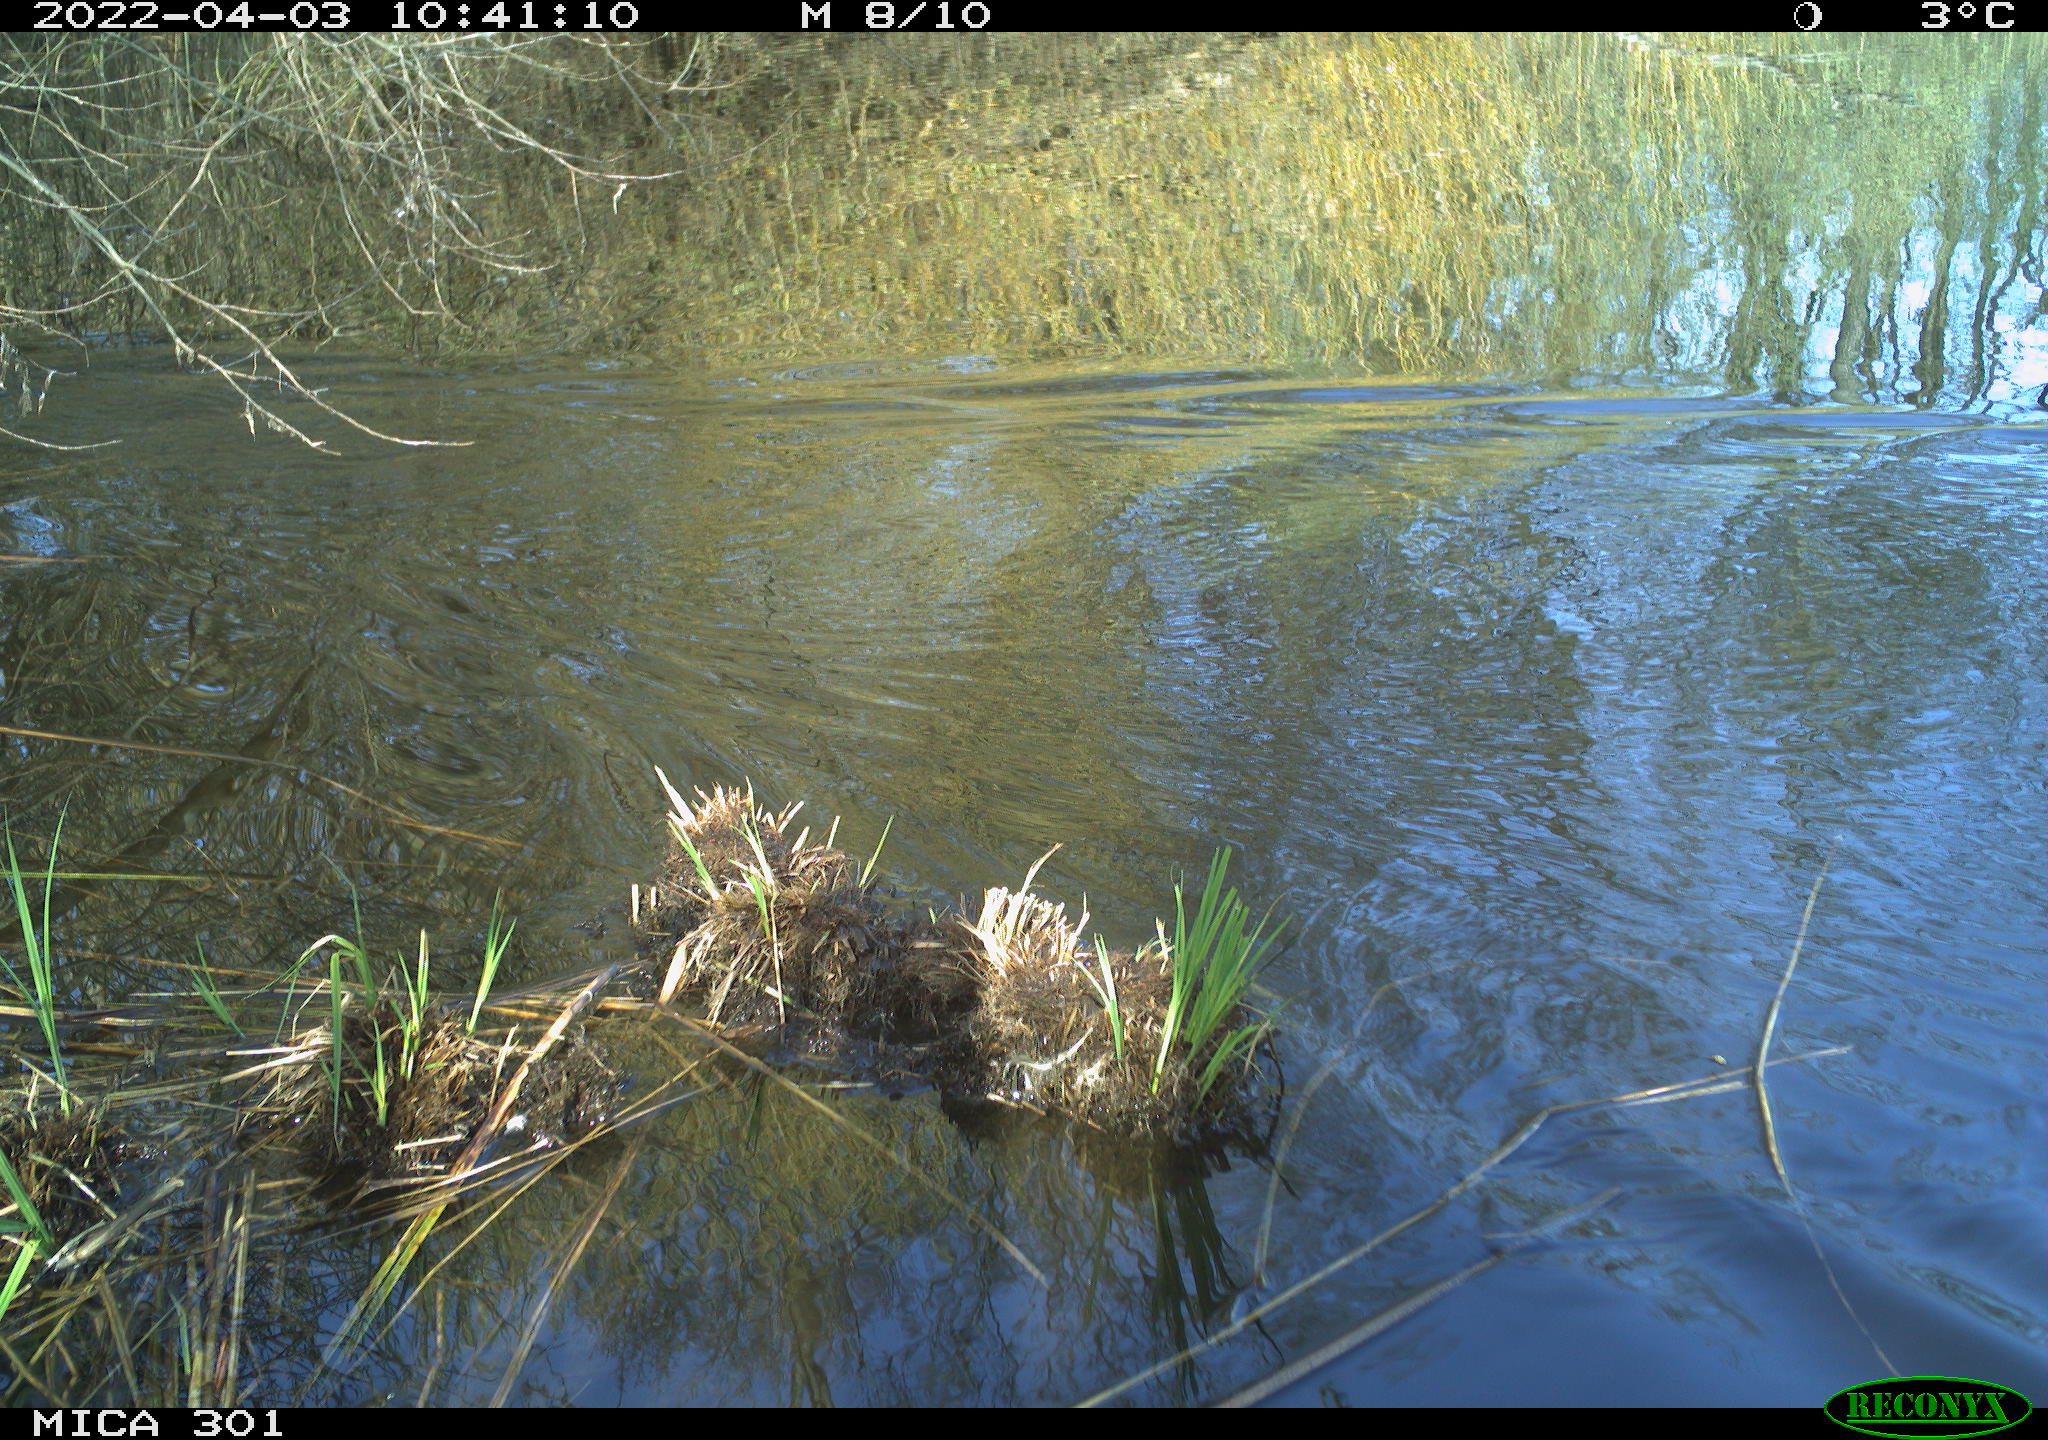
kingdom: Animalia
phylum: Chordata
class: Aves
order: Anseriformes
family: Anatidae
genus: Anas
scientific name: Anas platyrhynchos
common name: Mallard
